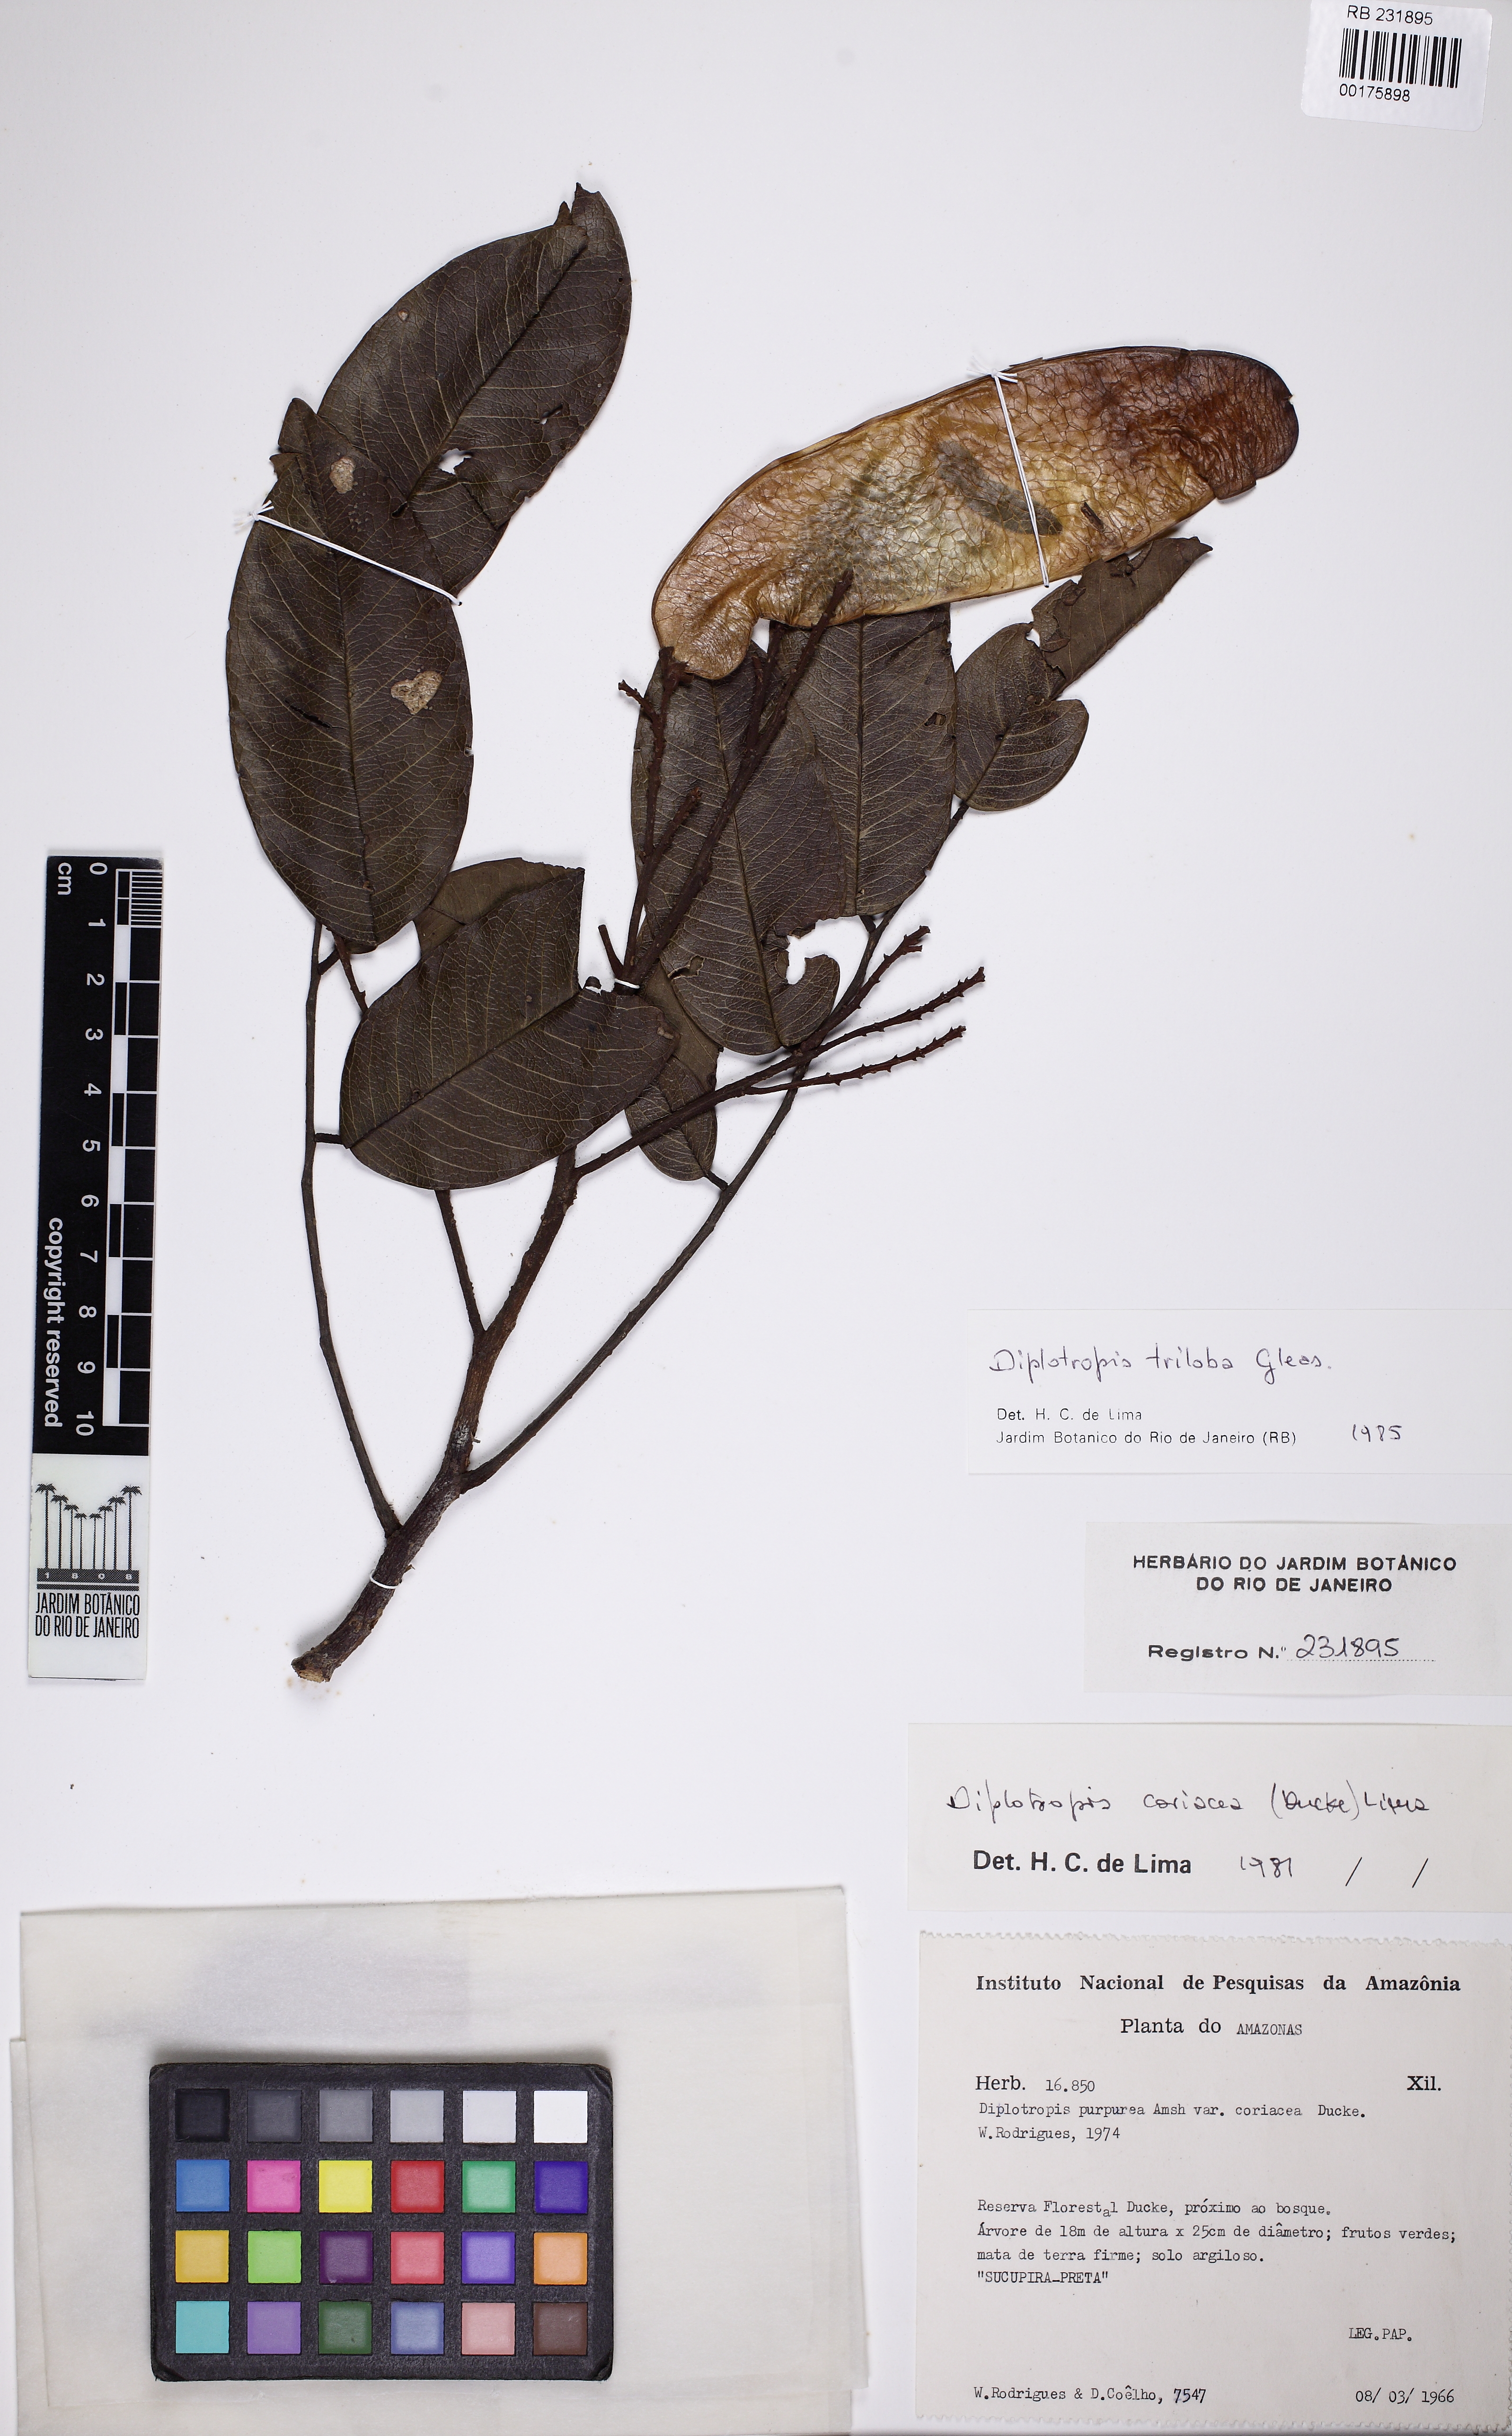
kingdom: Plantae
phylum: Tracheophyta
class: Magnoliopsida
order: Fabales
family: Fabaceae
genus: Diplotropis
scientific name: Diplotropis triloba
